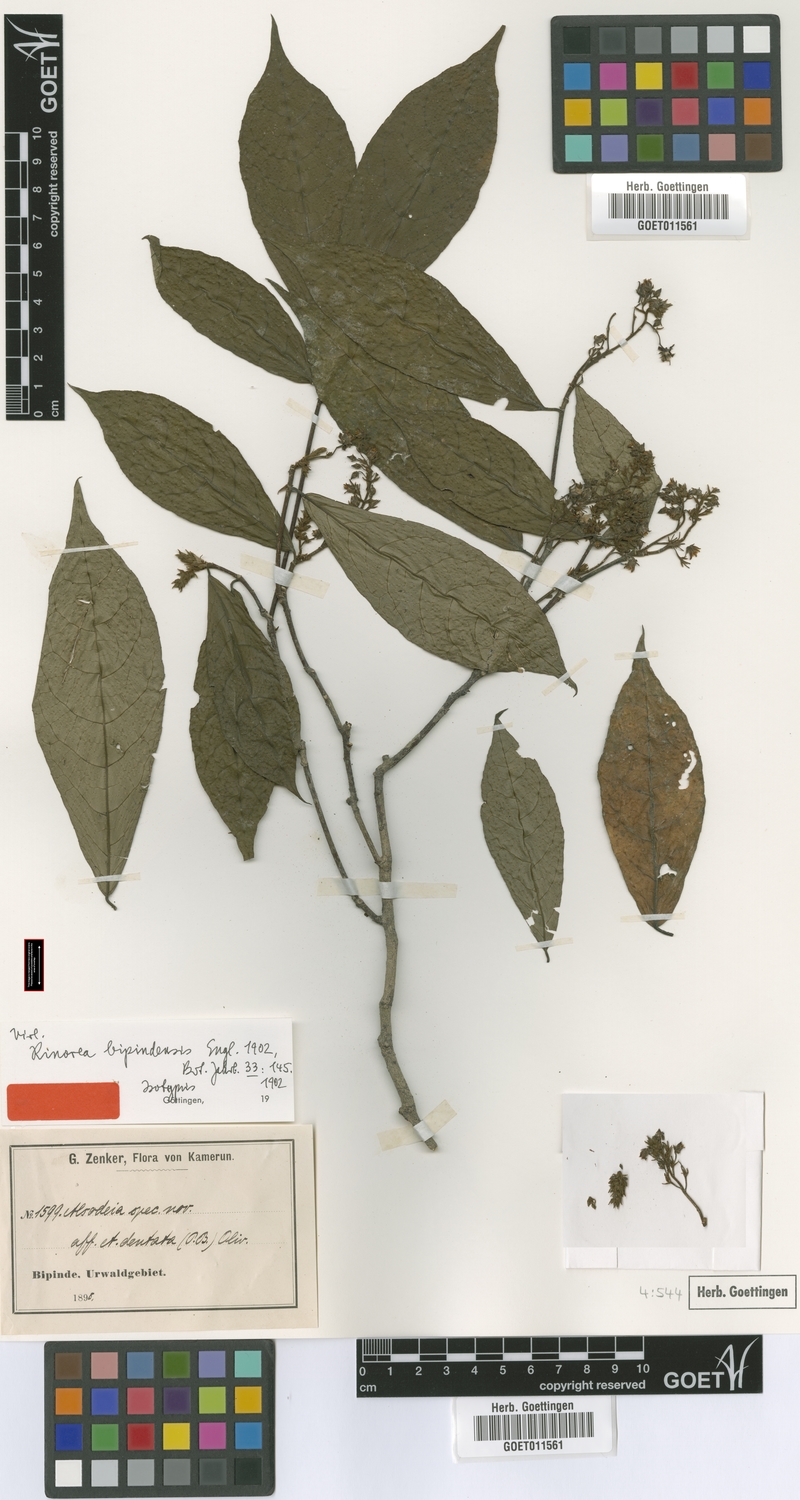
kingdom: Plantae
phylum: Tracheophyta
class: Magnoliopsida
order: Malpighiales
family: Violaceae
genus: Rinorea
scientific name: Rinorea dentata
